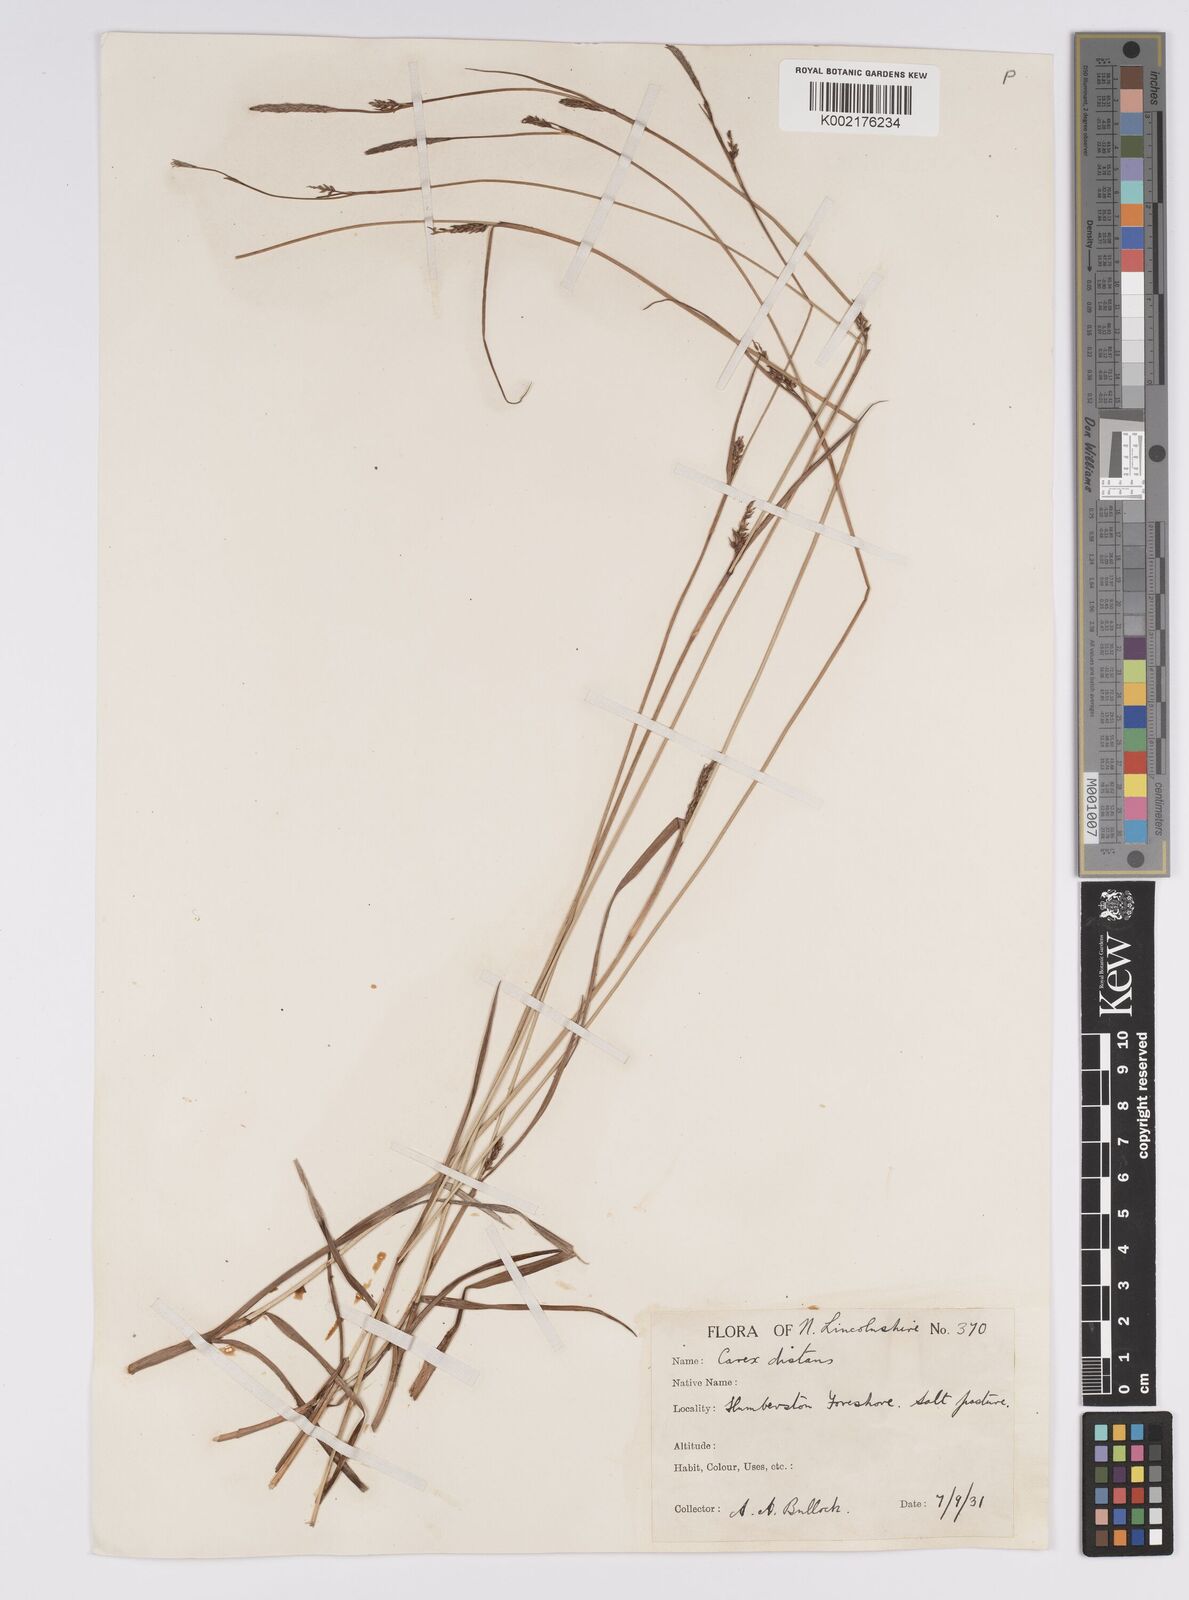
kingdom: Plantae
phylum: Tracheophyta
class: Liliopsida
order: Poales
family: Cyperaceae
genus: Carex
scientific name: Carex distans
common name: Distant sedge
